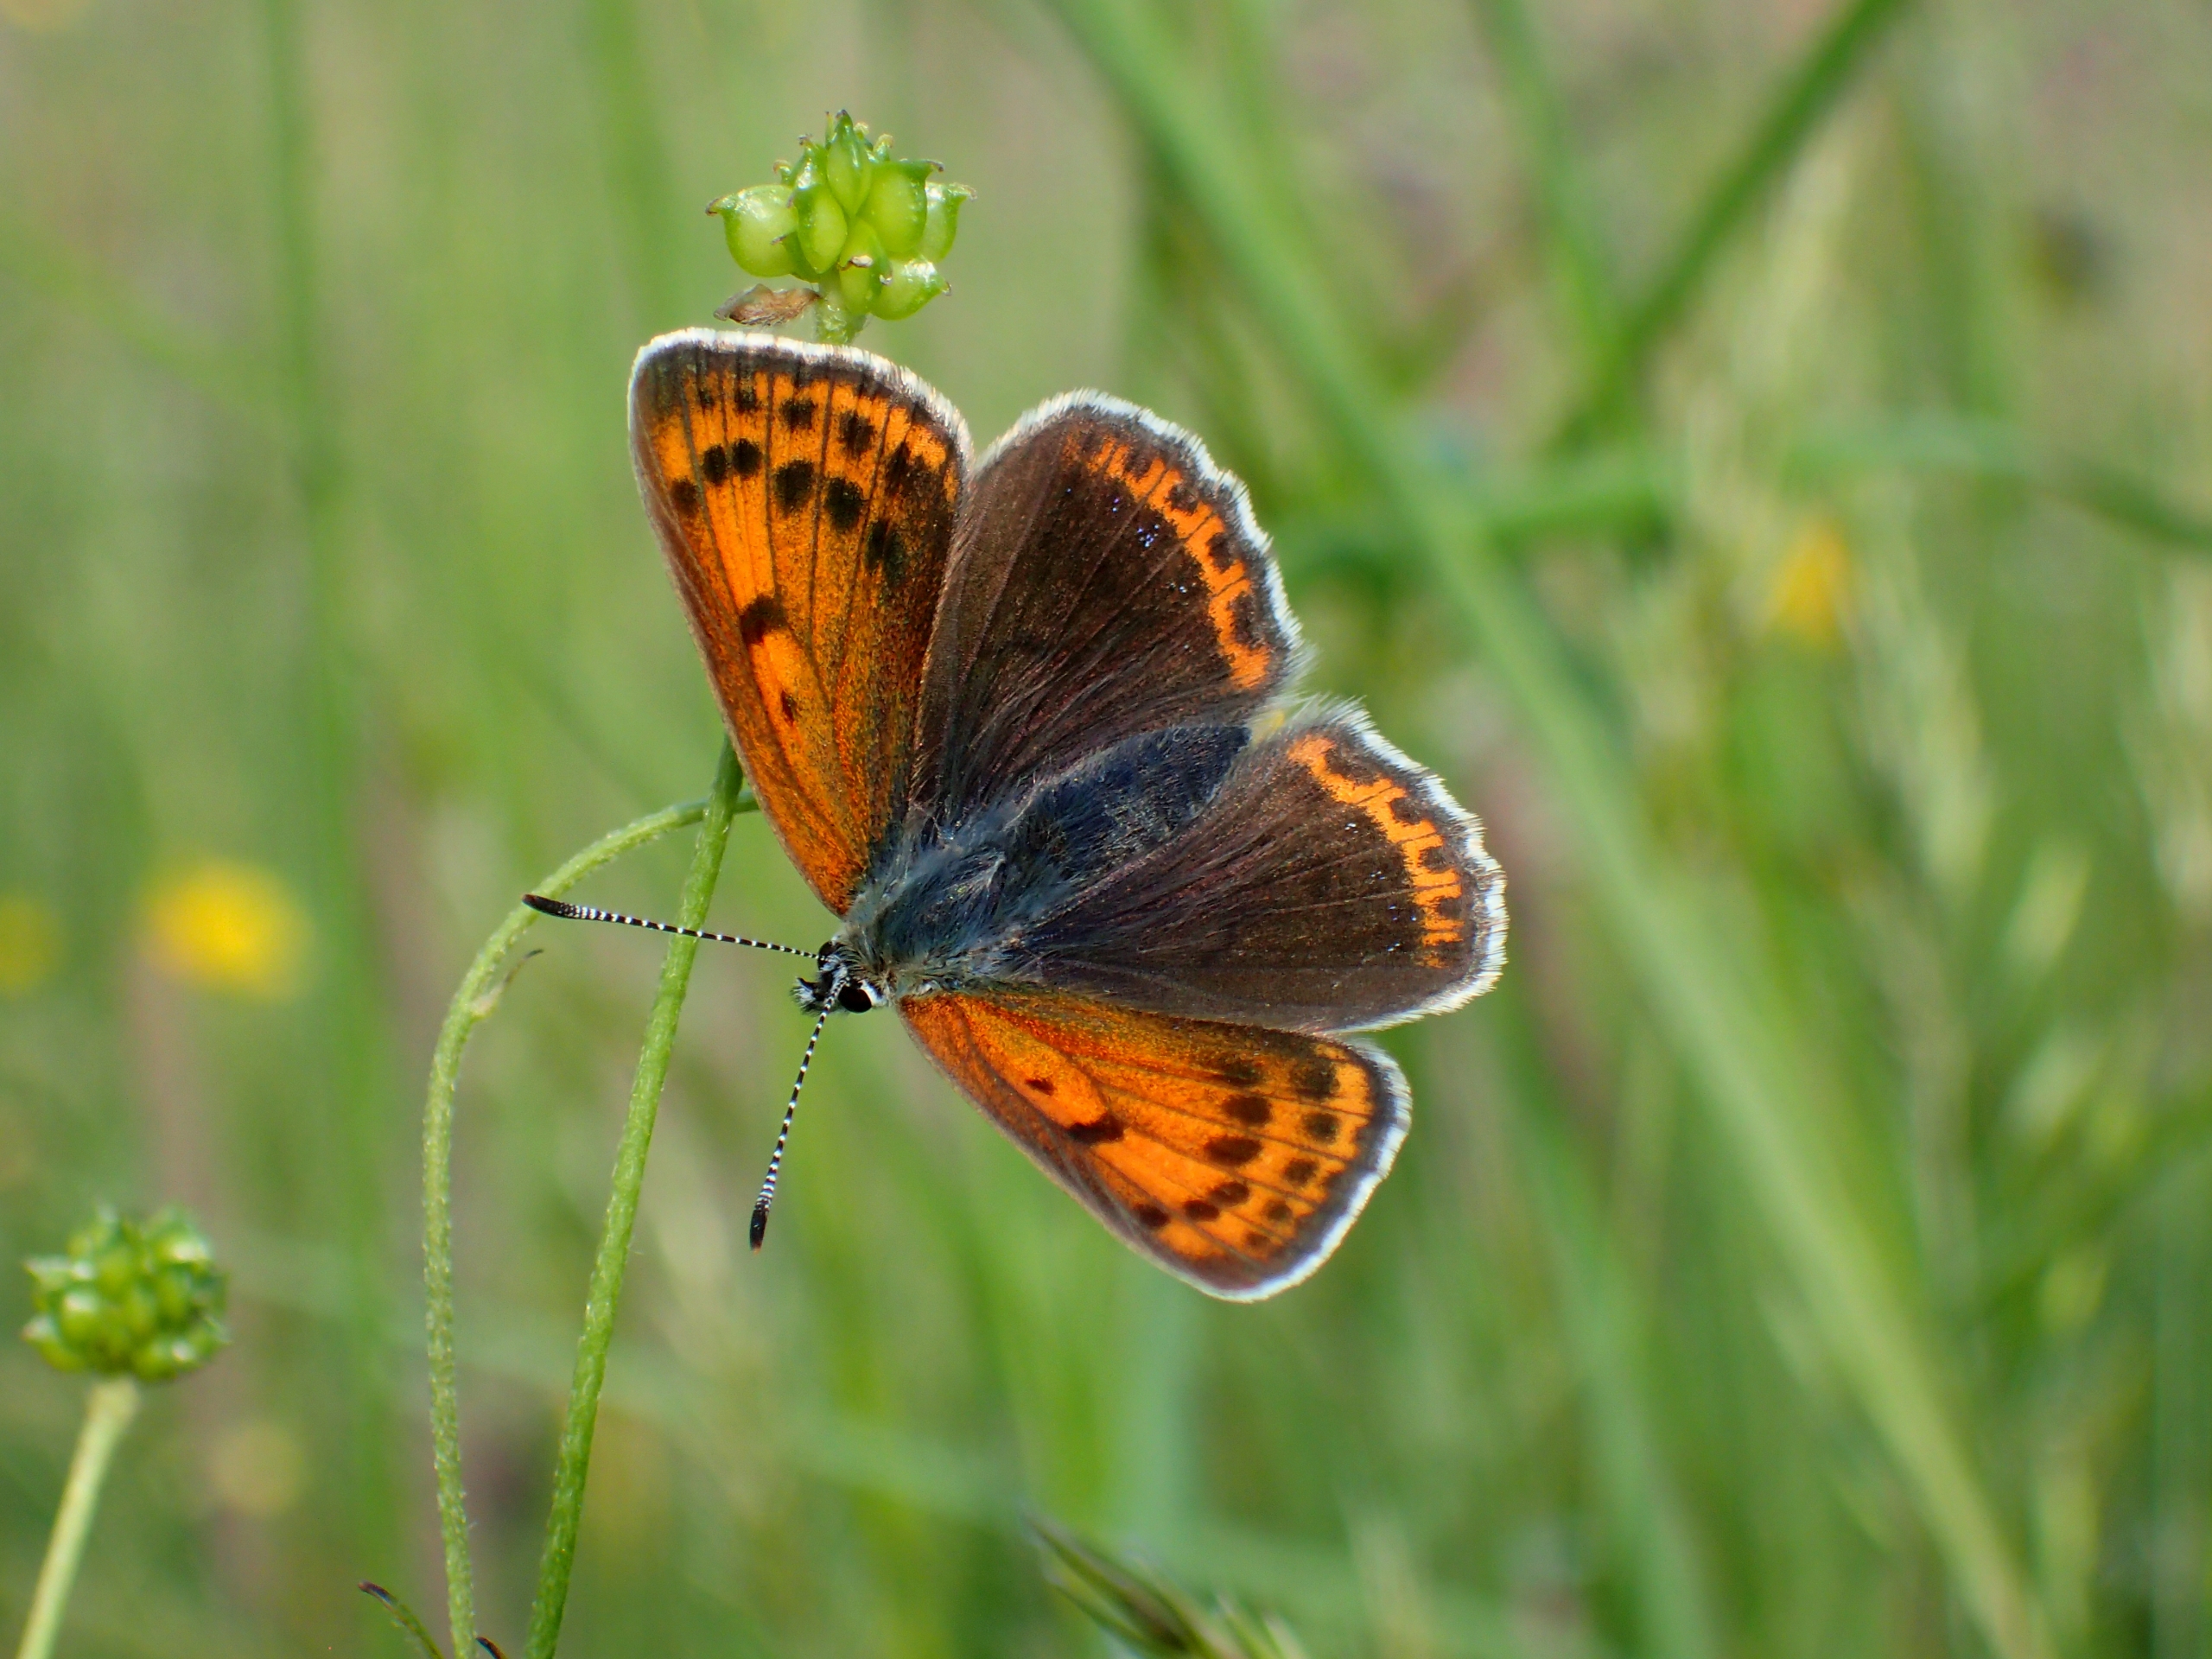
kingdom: Animalia
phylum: Arthropoda
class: Insecta
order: Lepidoptera
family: Lycaenidae
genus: Palaeochrysophanus
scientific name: Palaeochrysophanus hippothoe
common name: Violetrandet ildfugl
